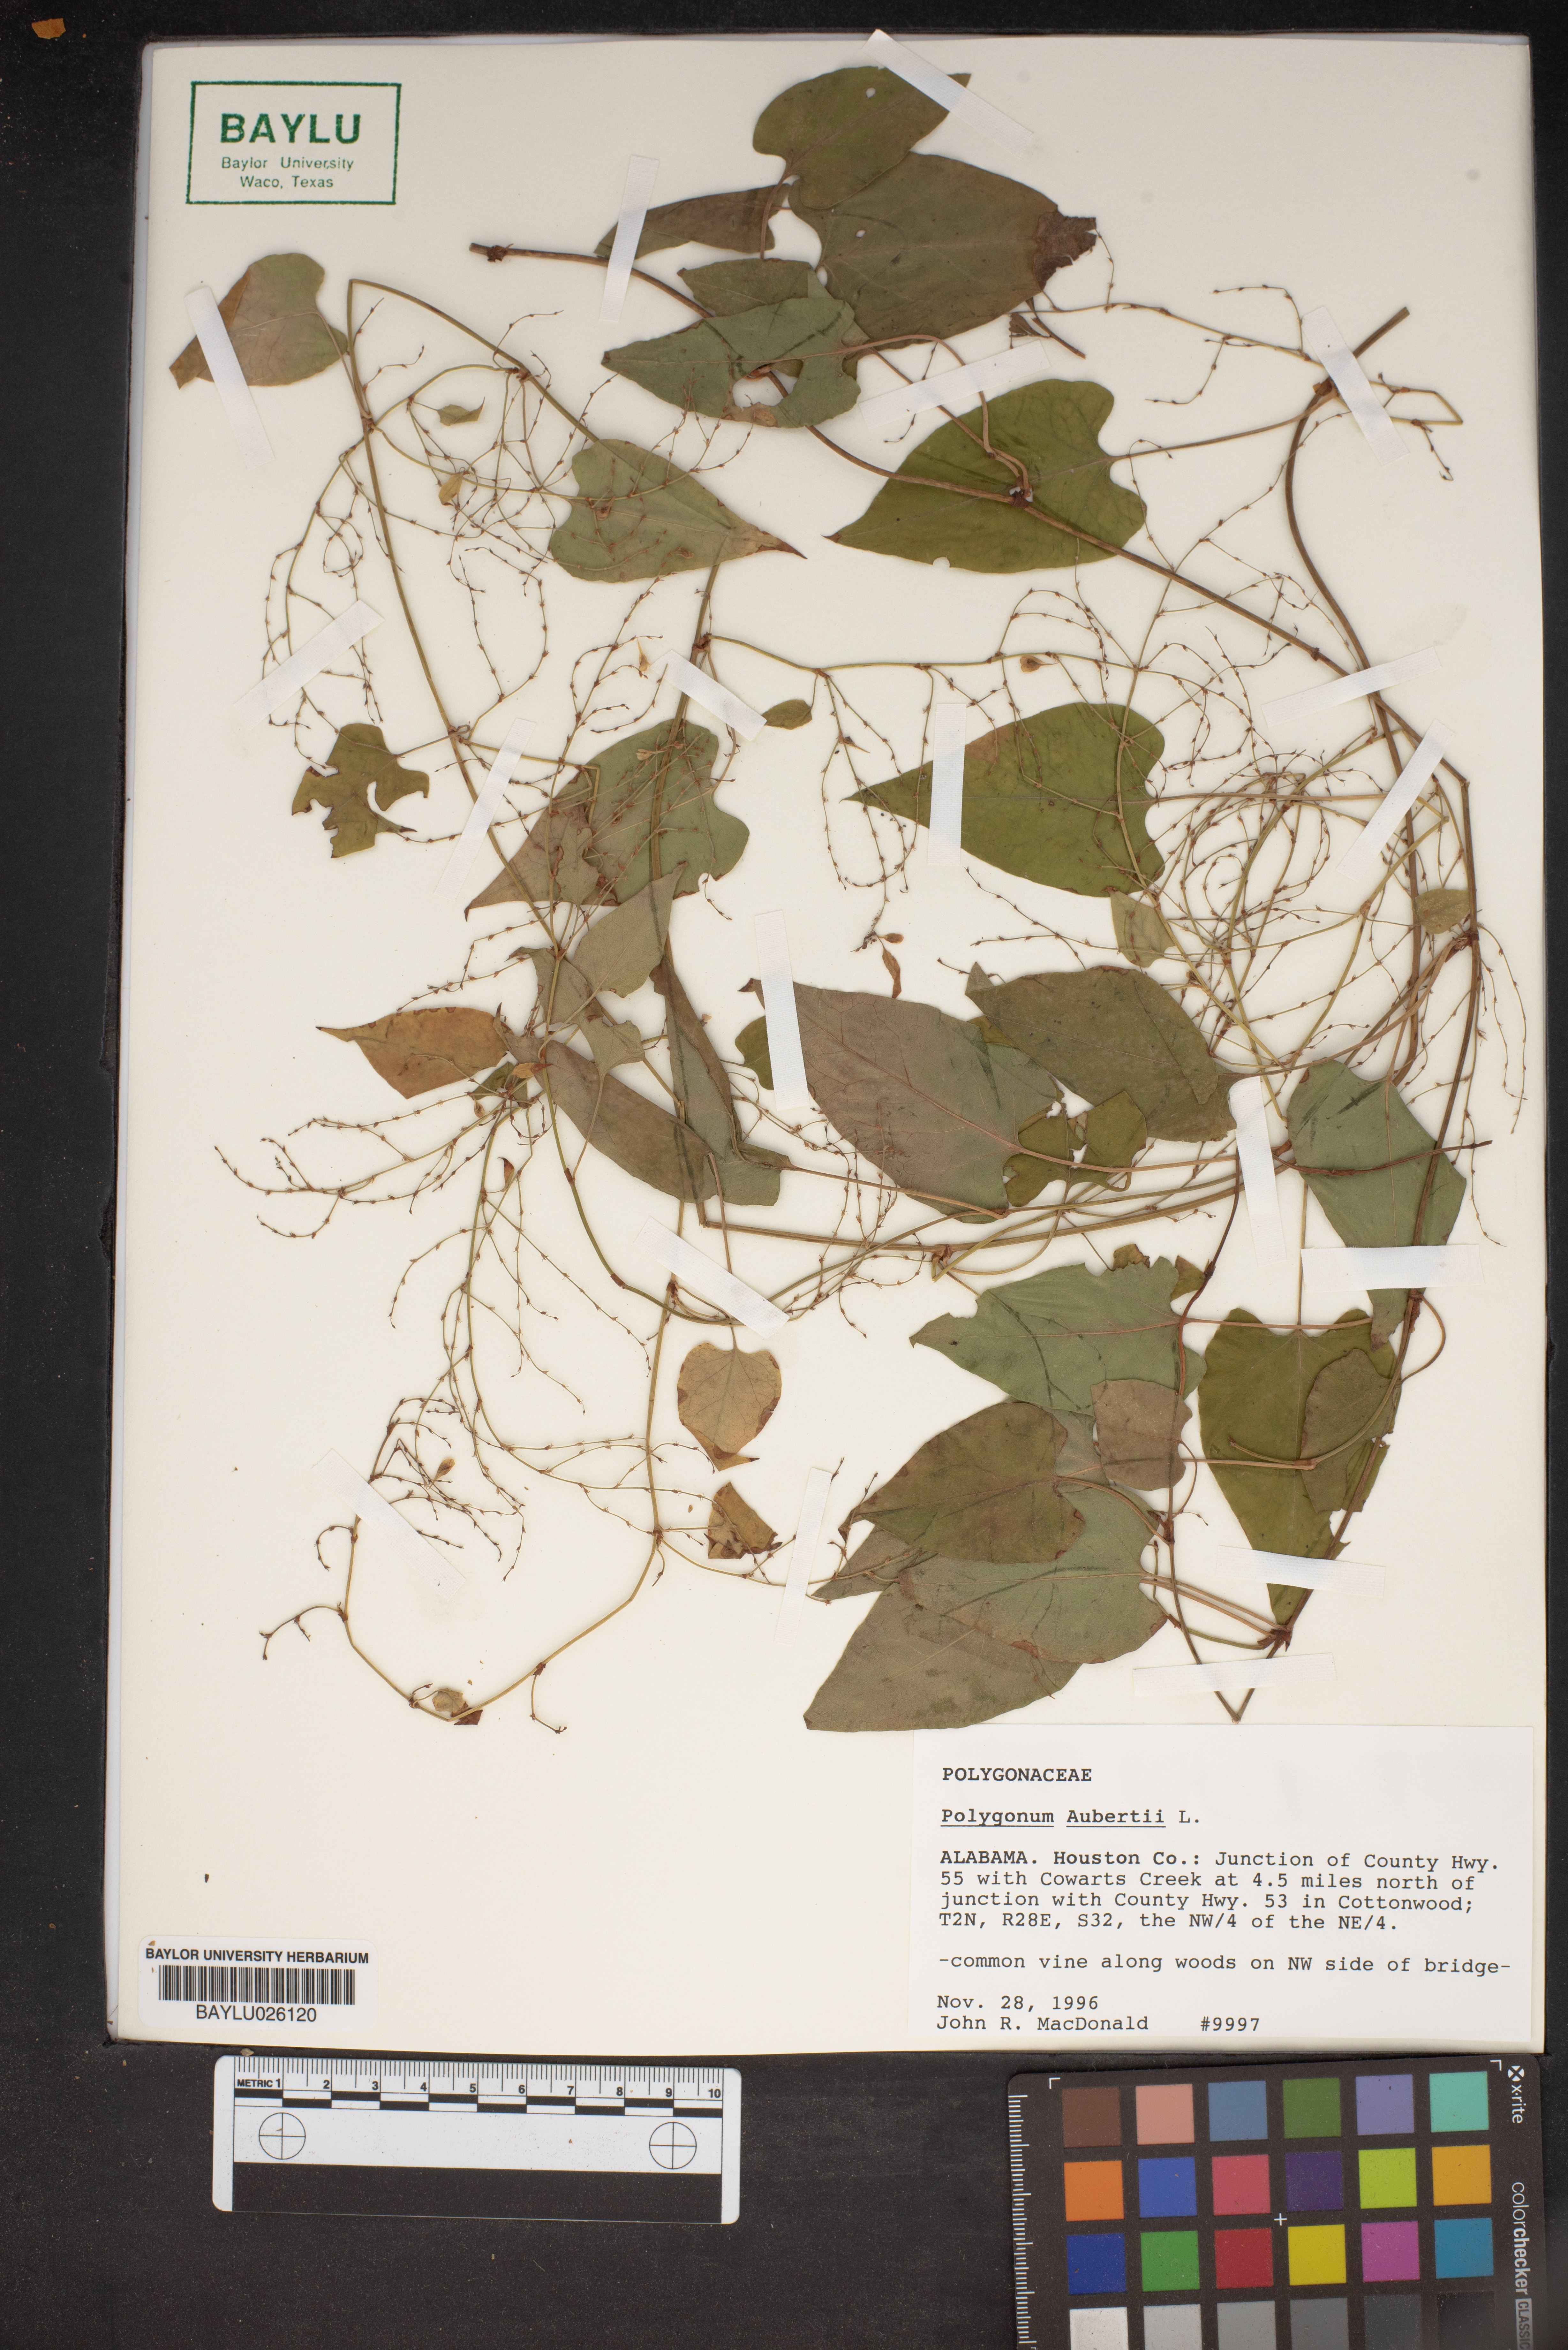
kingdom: Plantae
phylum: Tracheophyta
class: Magnoliopsida
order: Caryophyllales
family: Polygonaceae
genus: Fallopia
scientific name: Fallopia baldschuanica
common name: Russian-vine
